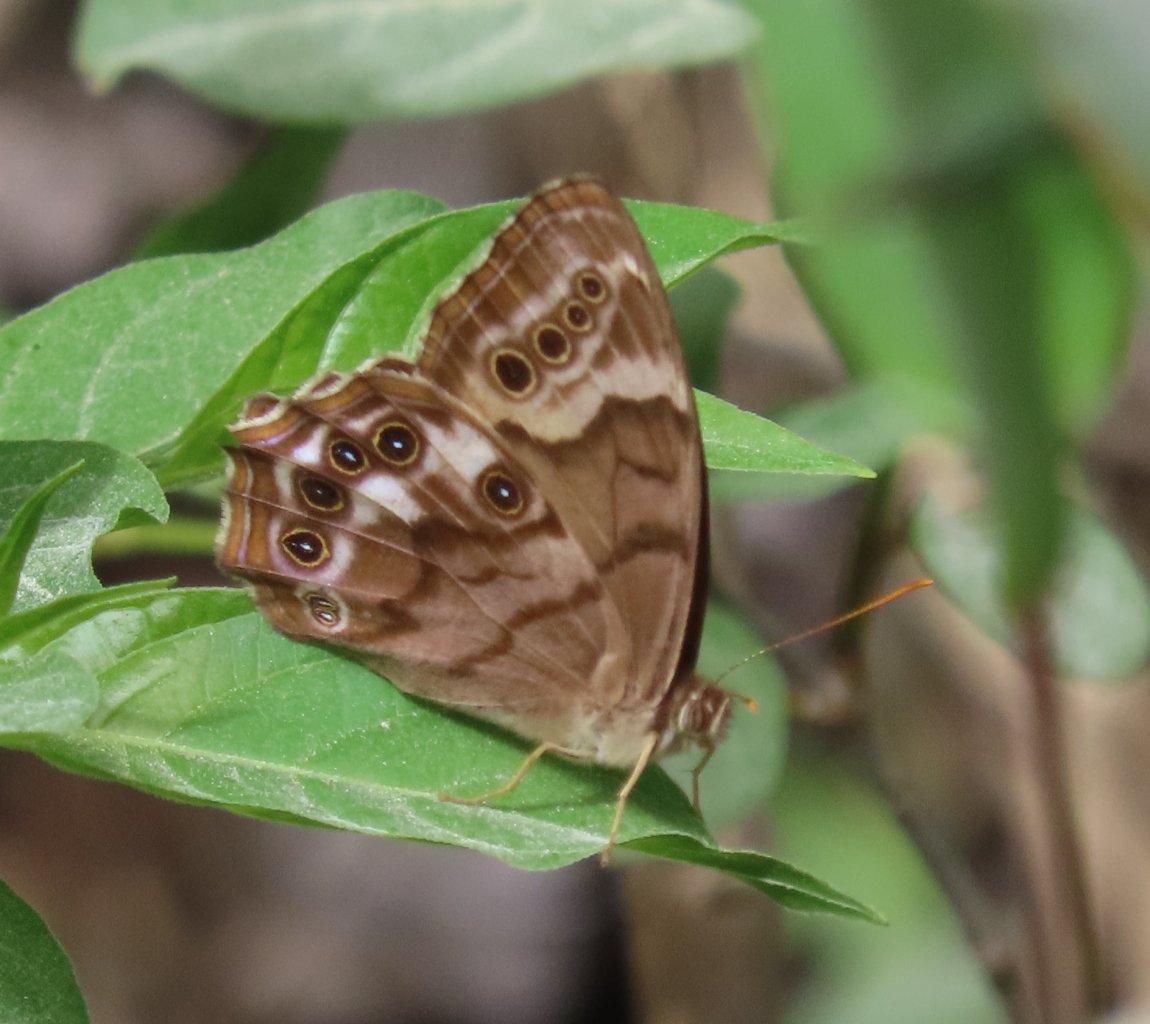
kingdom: Animalia
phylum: Arthropoda
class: Insecta
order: Lepidoptera
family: Nymphalidae
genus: Enodia
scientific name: Enodia portlandia
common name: Southern Pearly Eye
